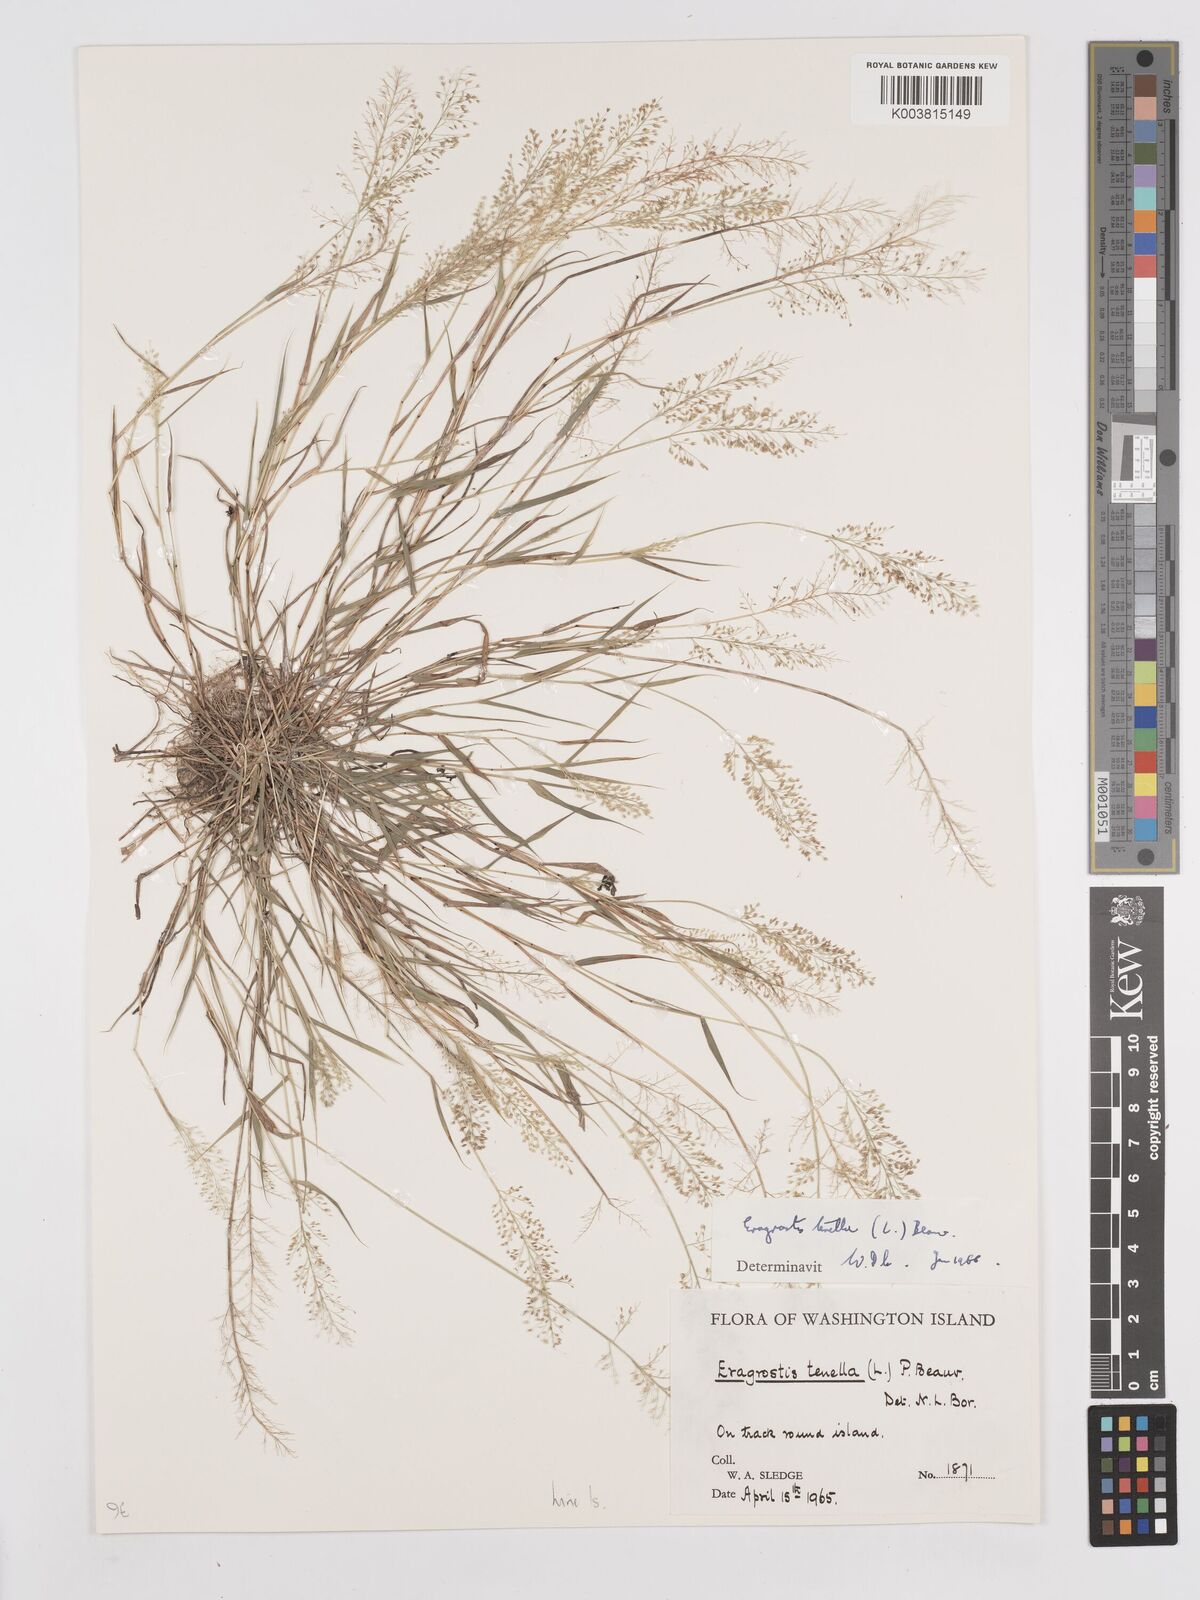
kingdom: Plantae
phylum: Tracheophyta
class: Liliopsida
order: Poales
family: Poaceae
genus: Eragrostis
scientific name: Eragrostis tenella
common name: Japanese lovegrass
